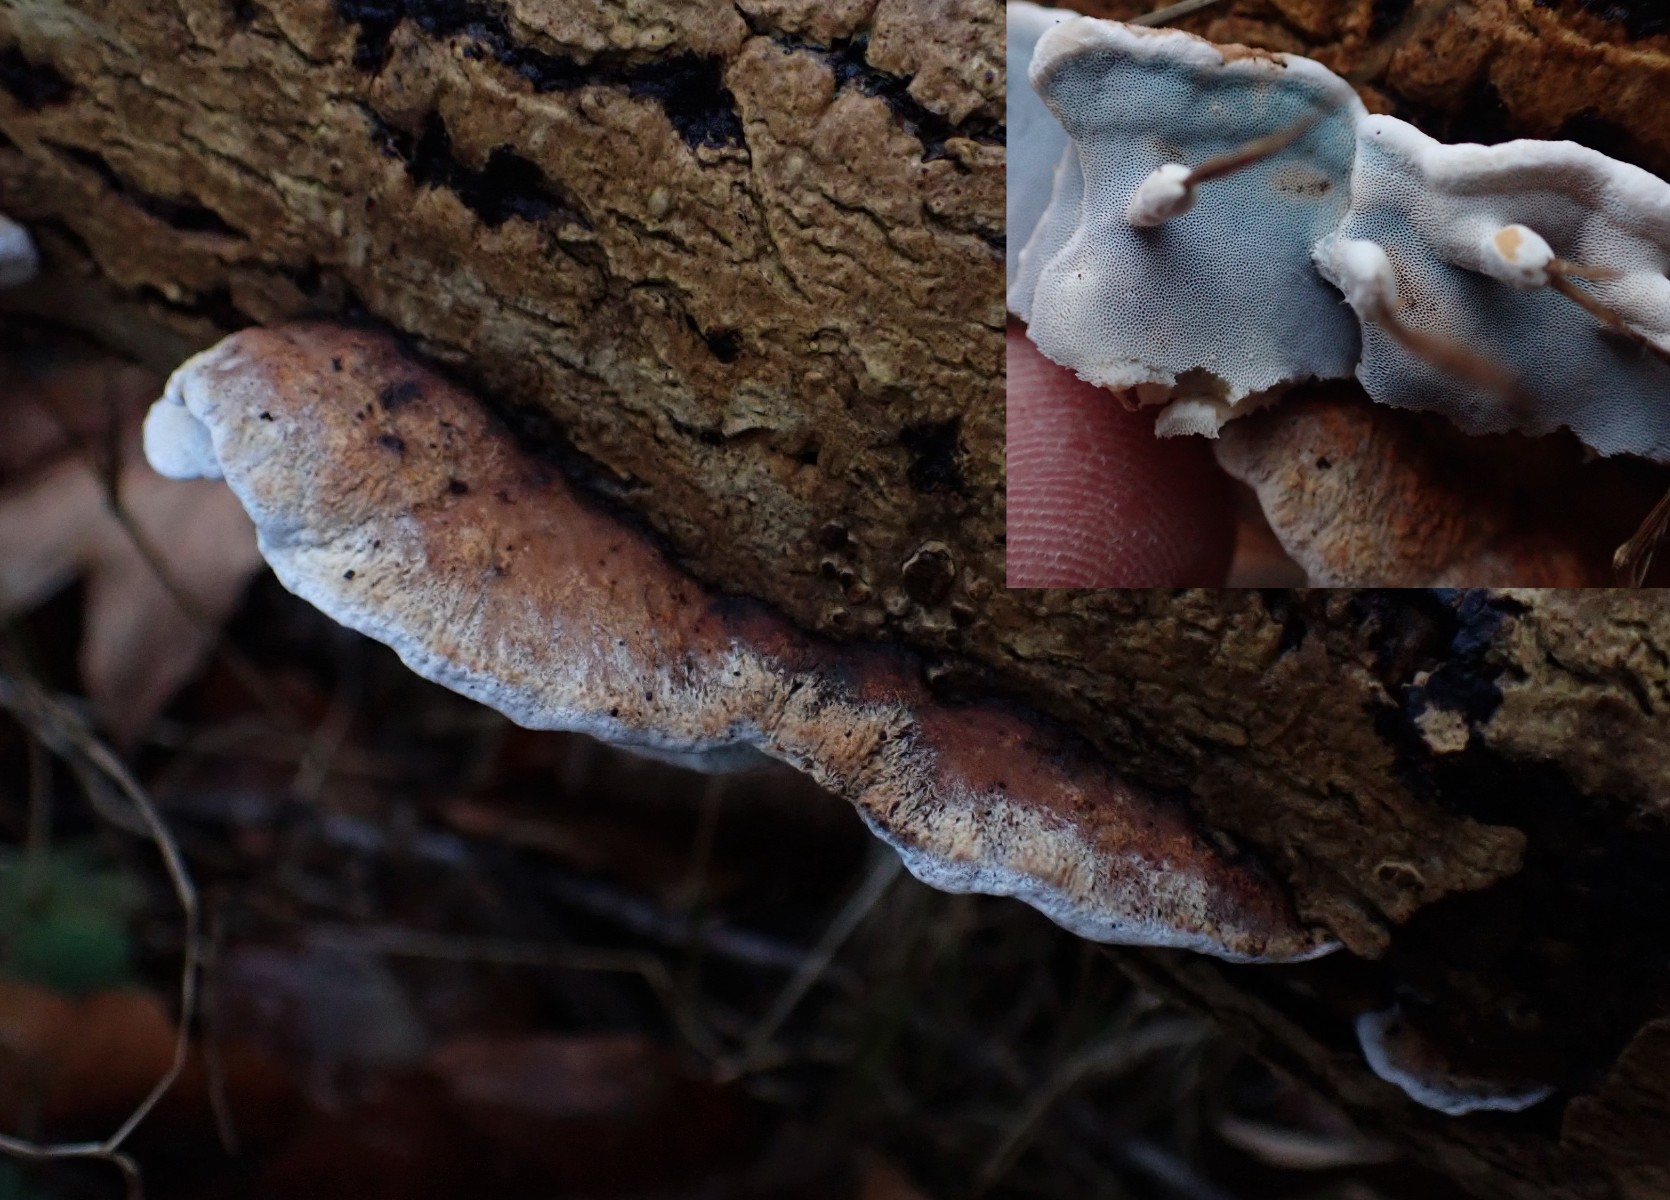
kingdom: Fungi
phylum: Basidiomycota
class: Agaricomycetes
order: Polyporales
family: Incrustoporiaceae
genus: Skeletocutis
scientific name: Skeletocutis nemoralis
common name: stor krystalporesvamp
